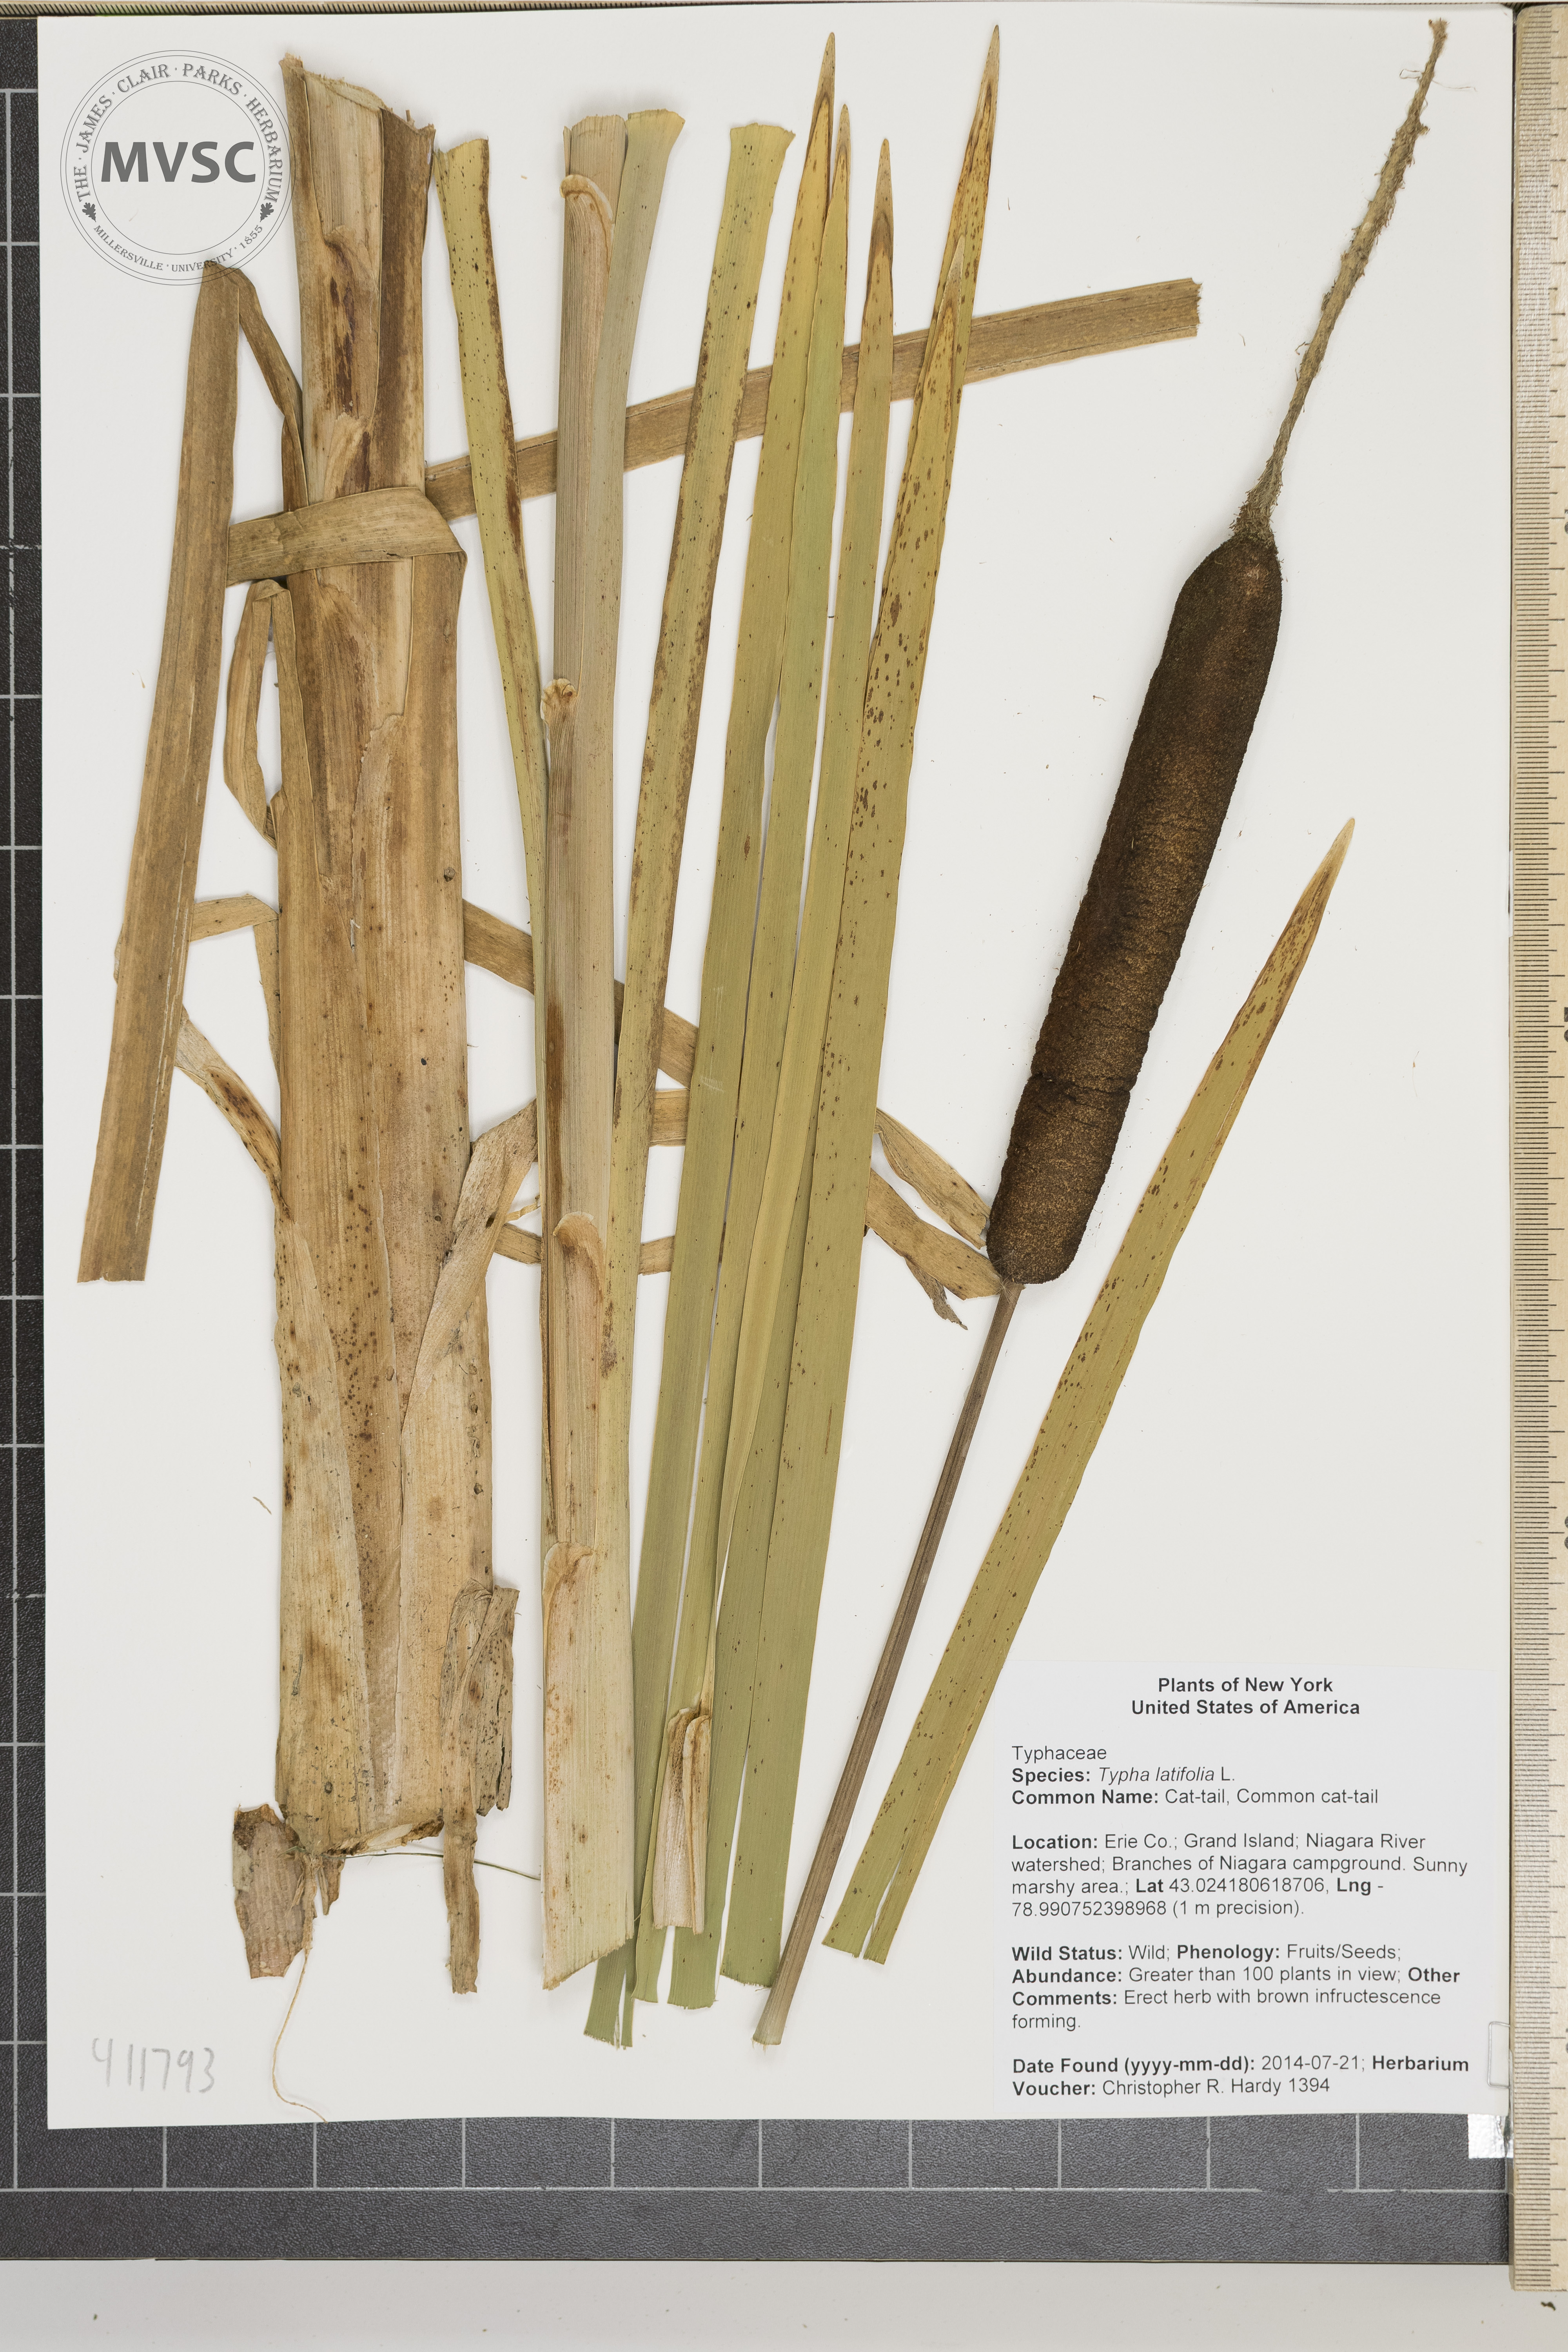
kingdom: Plantae
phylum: Tracheophyta
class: Liliopsida
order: Poales
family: Typhaceae
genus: Typha
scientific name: Typha latifolia
